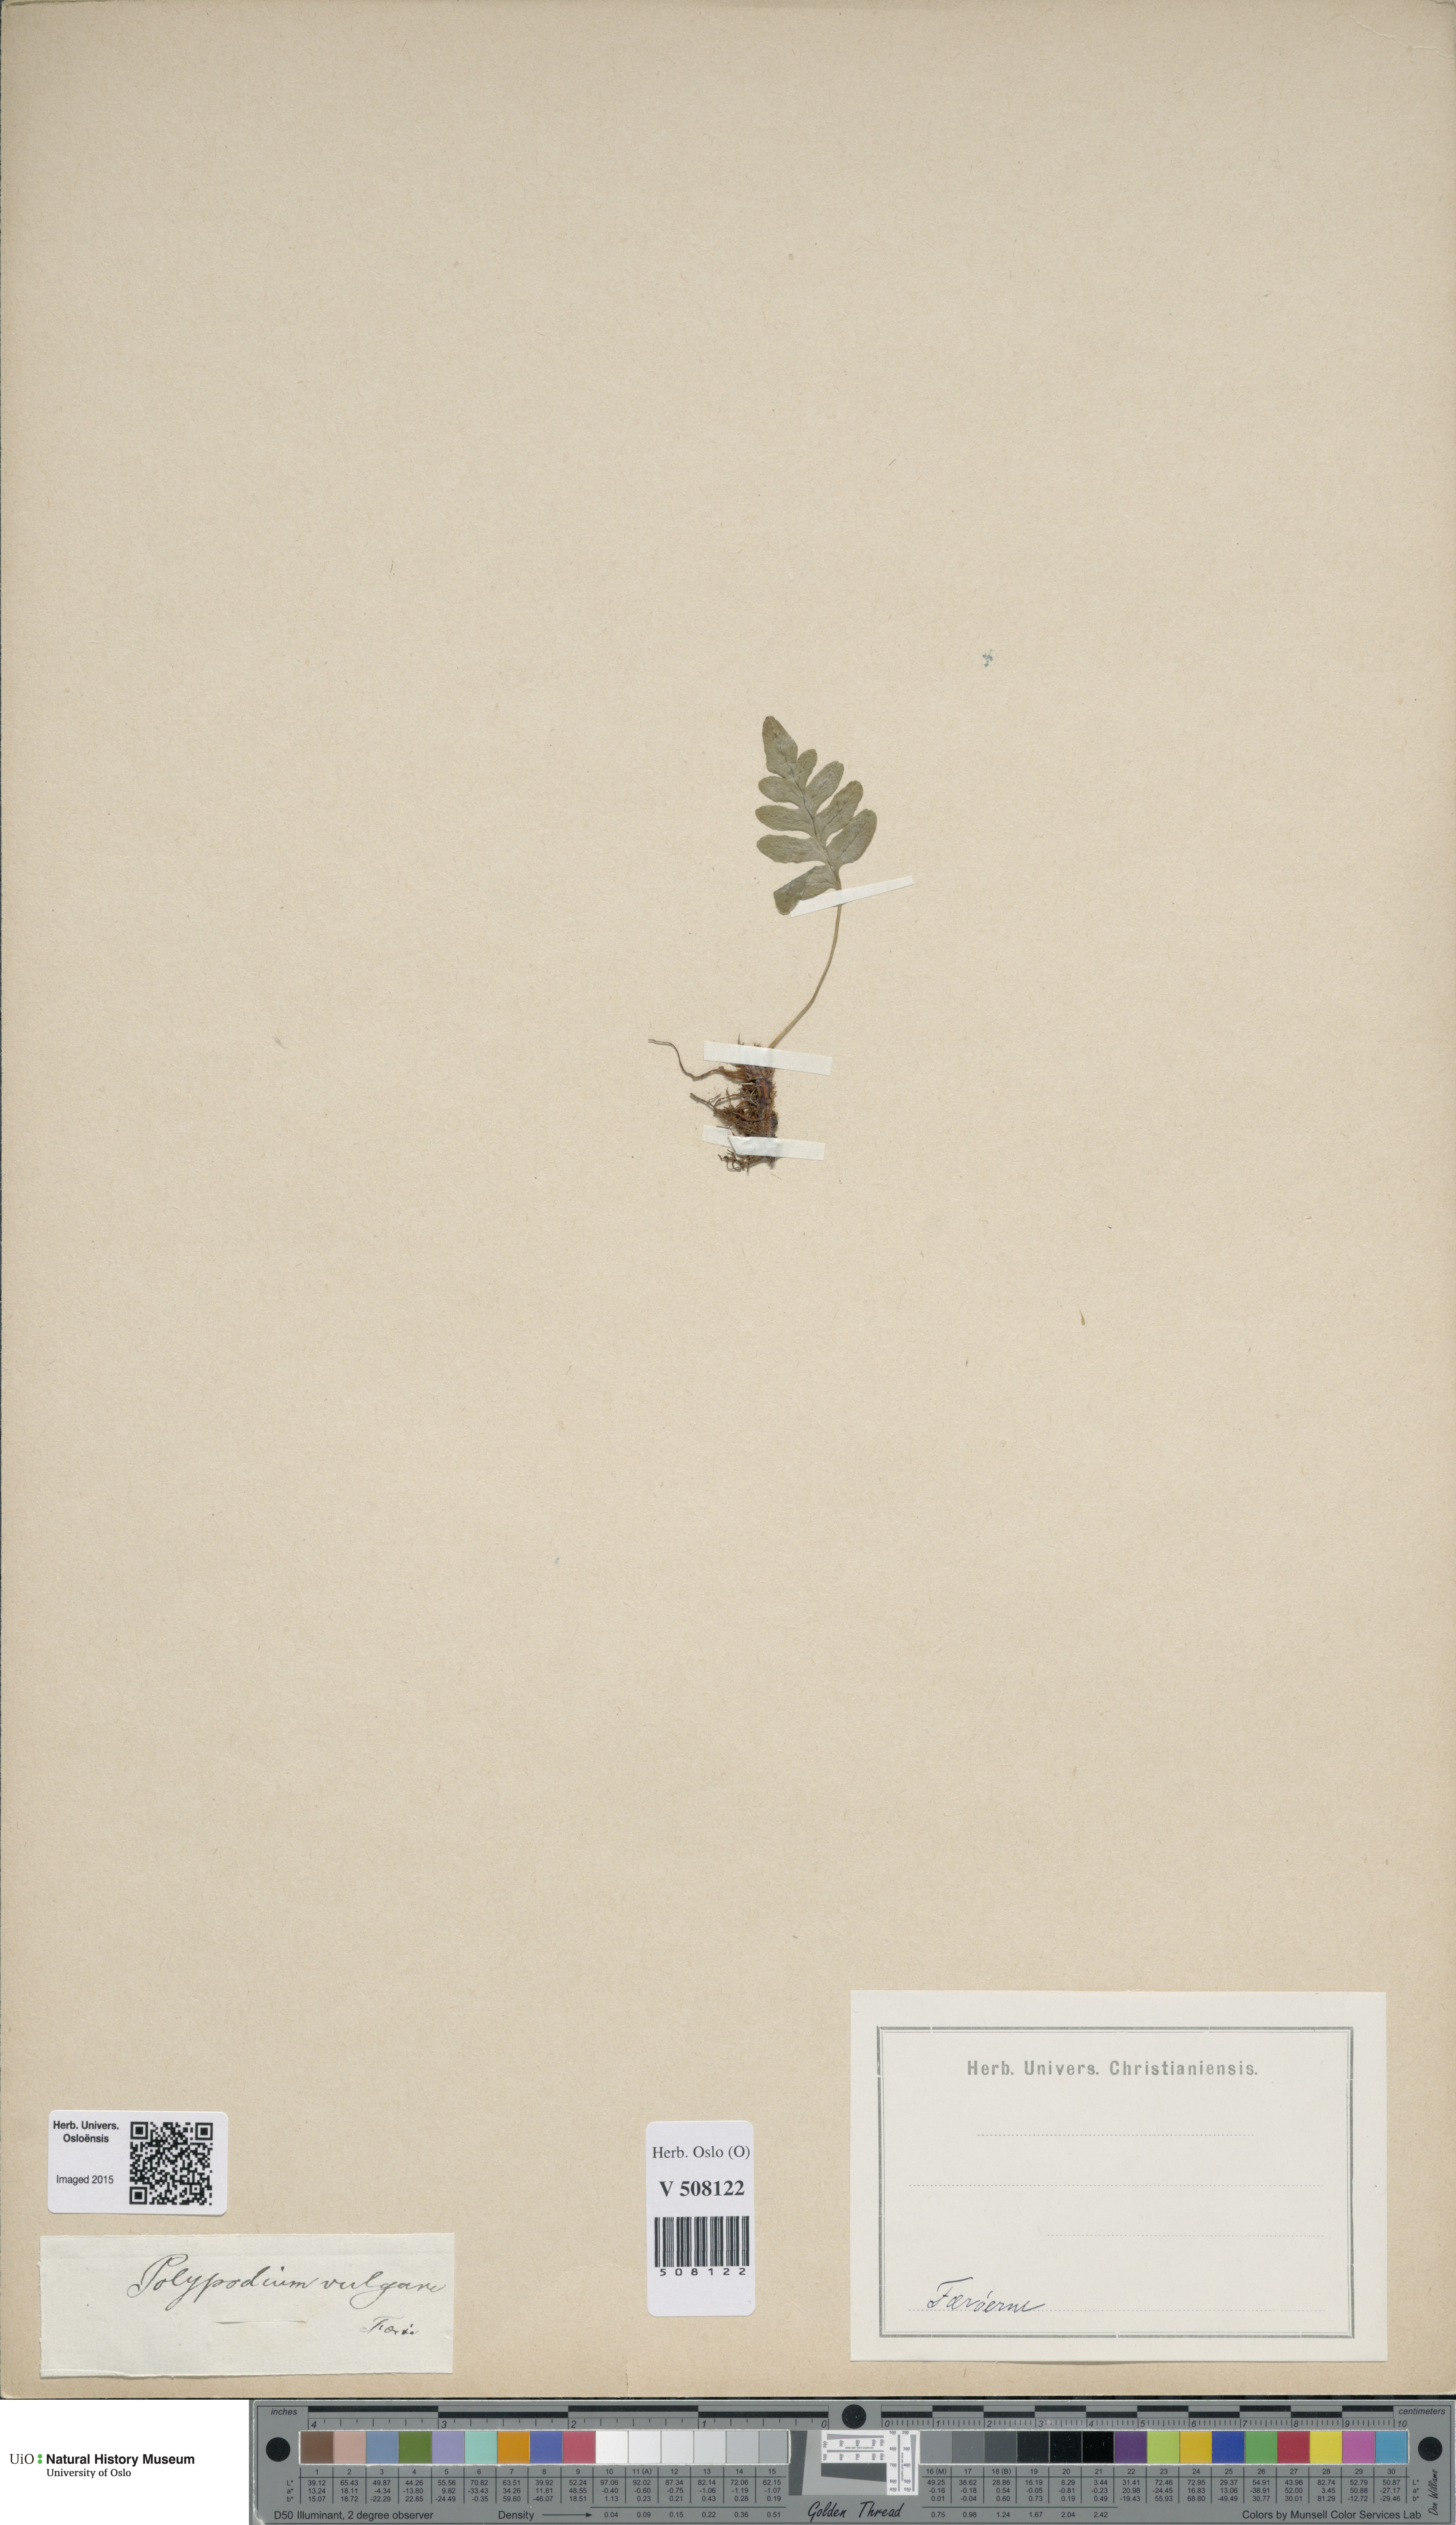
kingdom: Plantae
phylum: Tracheophyta
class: Polypodiopsida
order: Polypodiales
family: Polypodiaceae
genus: Polypodium
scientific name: Polypodium vulgare
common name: Common polypody
